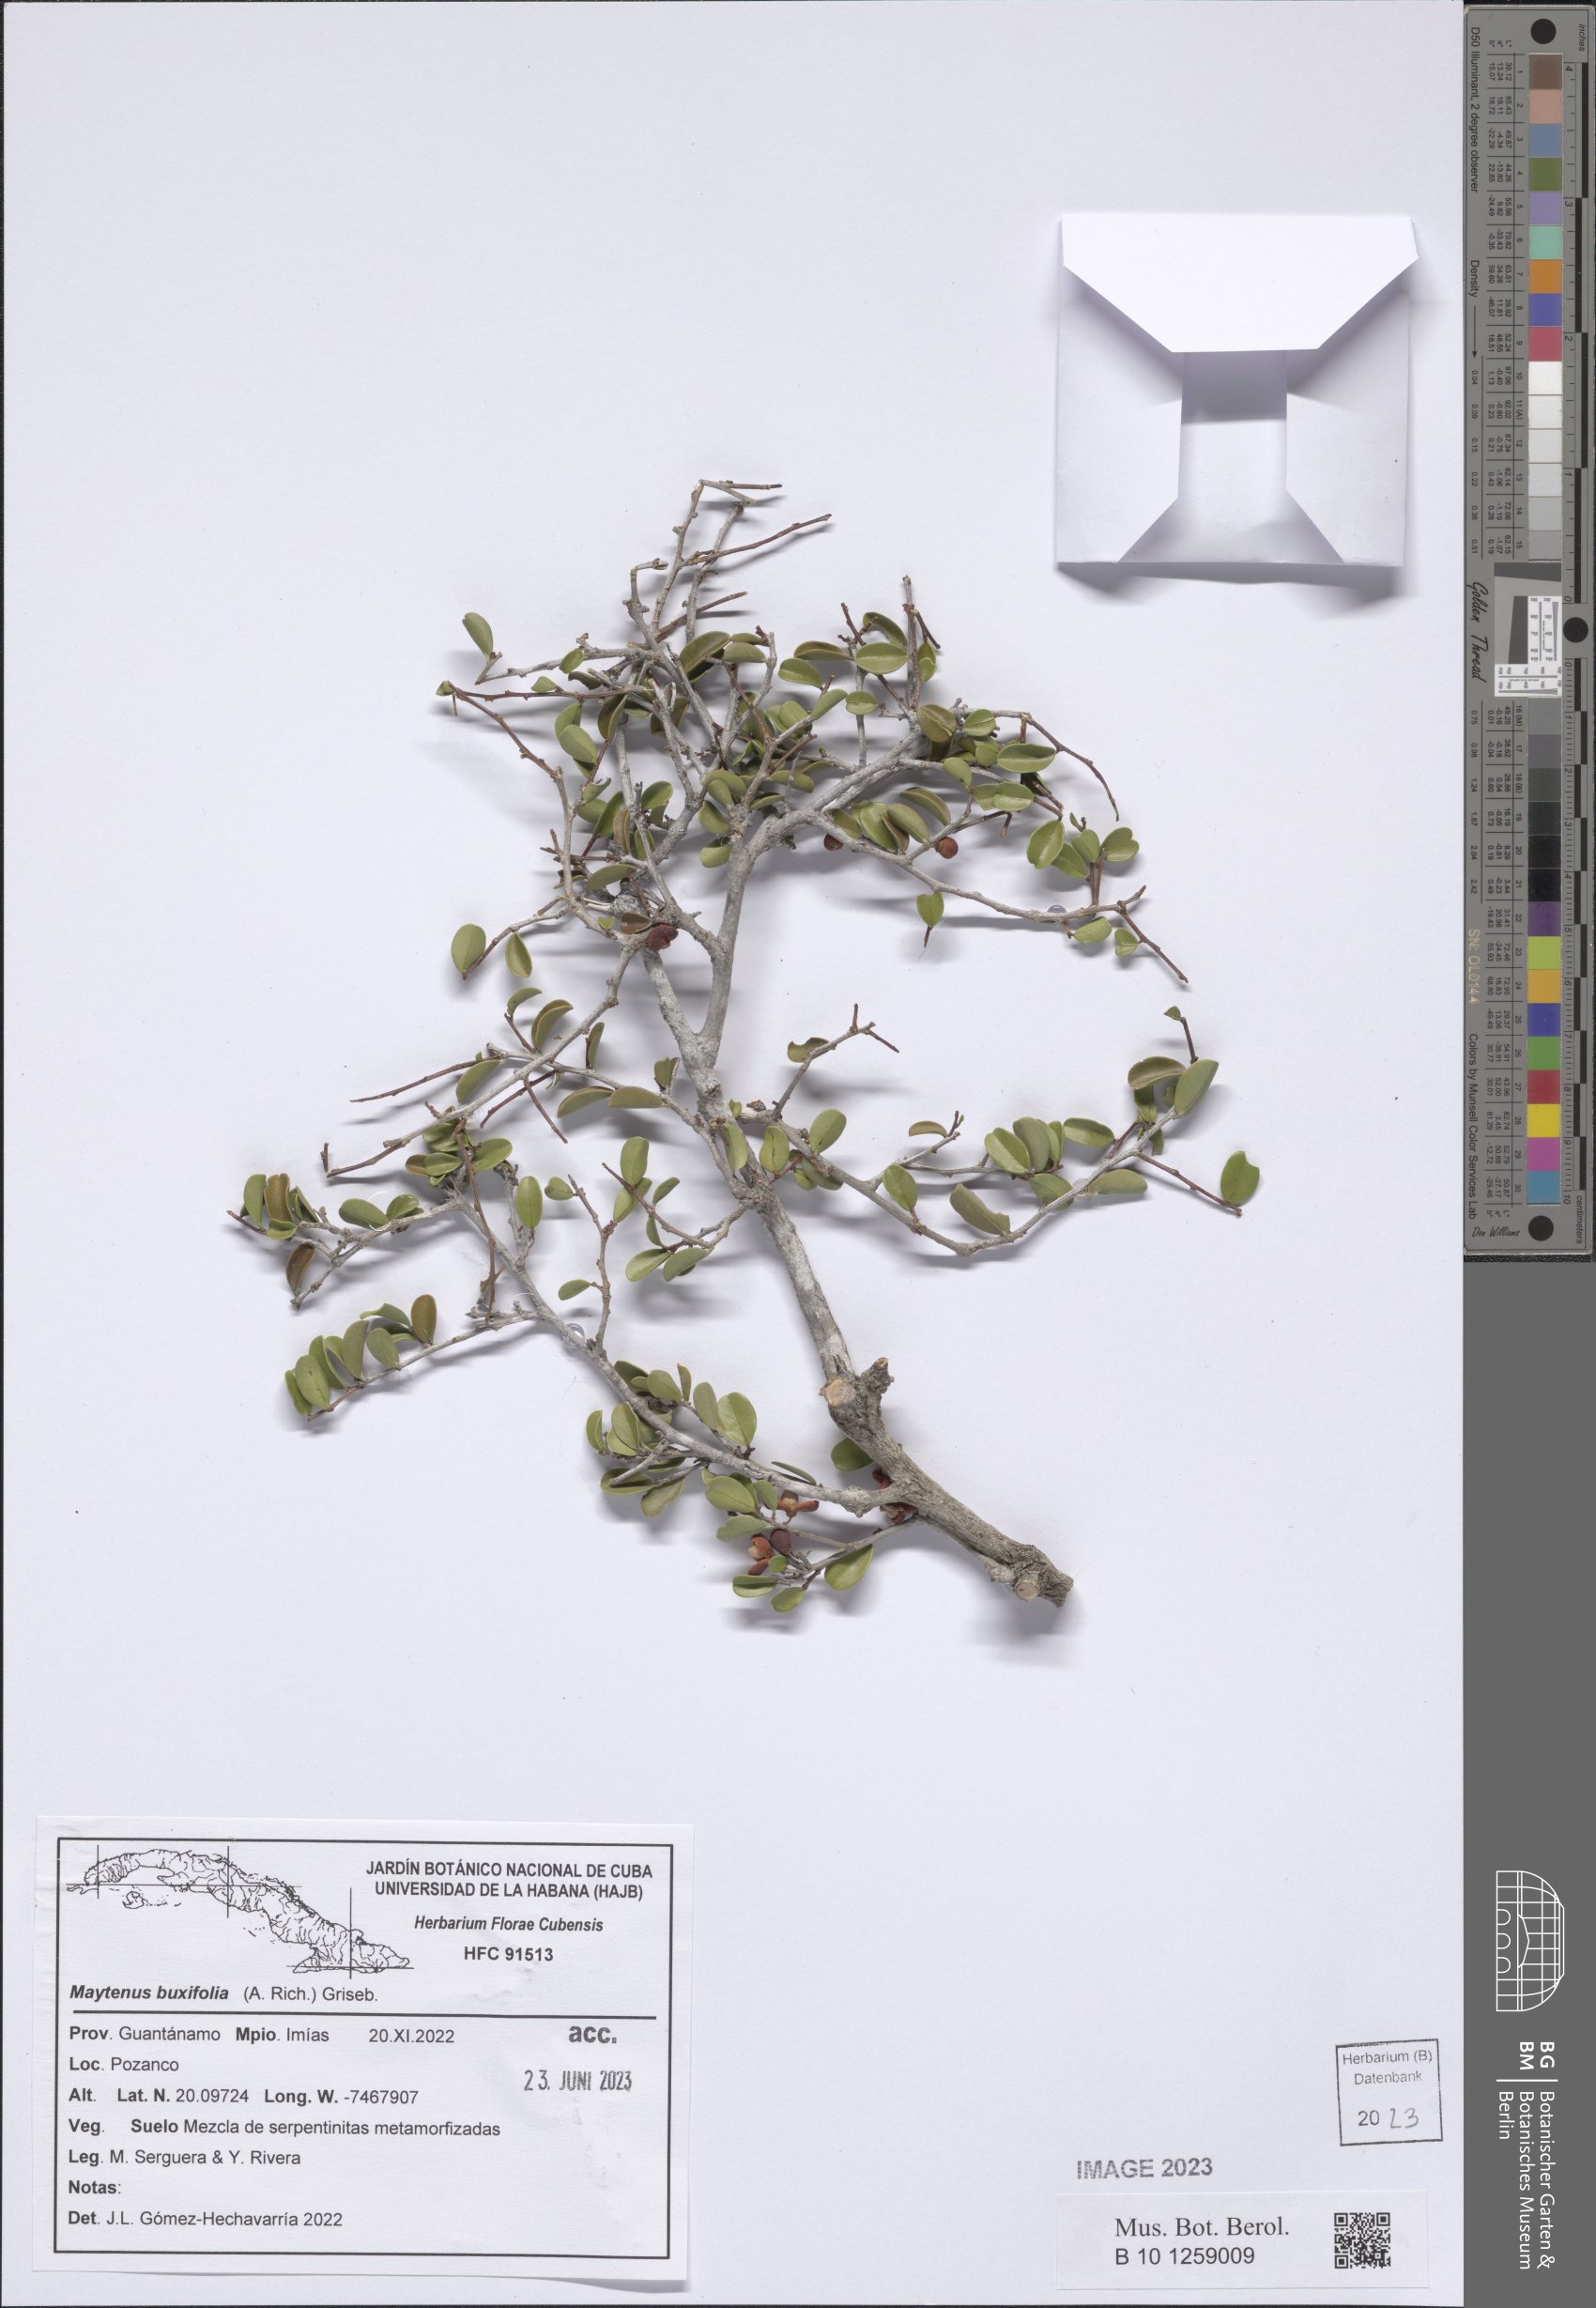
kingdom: Plantae
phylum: Tracheophyta
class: Magnoliopsida
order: Celastrales
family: Celastraceae
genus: Monteverdia
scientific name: Monteverdia buxifolia
